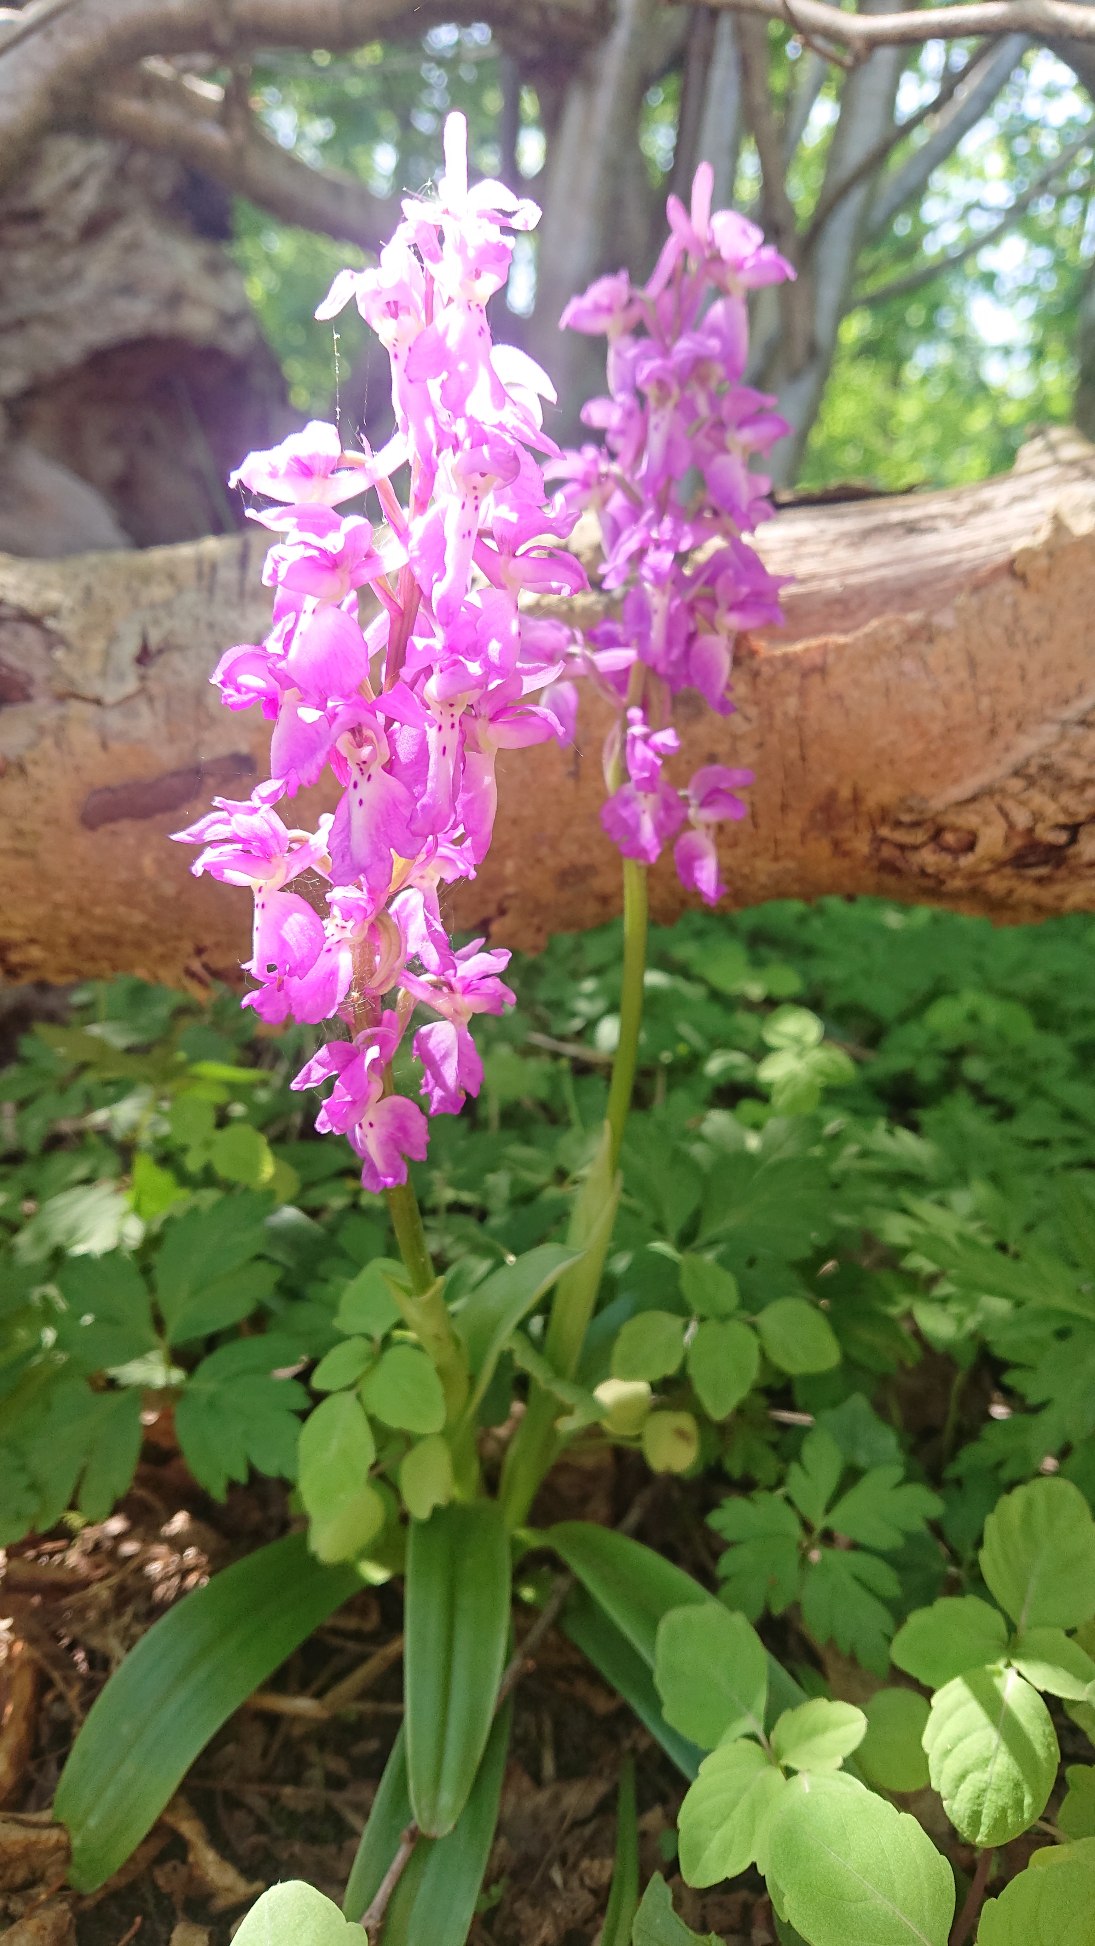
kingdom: Plantae
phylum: Tracheophyta
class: Liliopsida
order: Asparagales
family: Orchidaceae
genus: Orchis
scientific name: Orchis mascula
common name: Tyndakset gøgeurt
